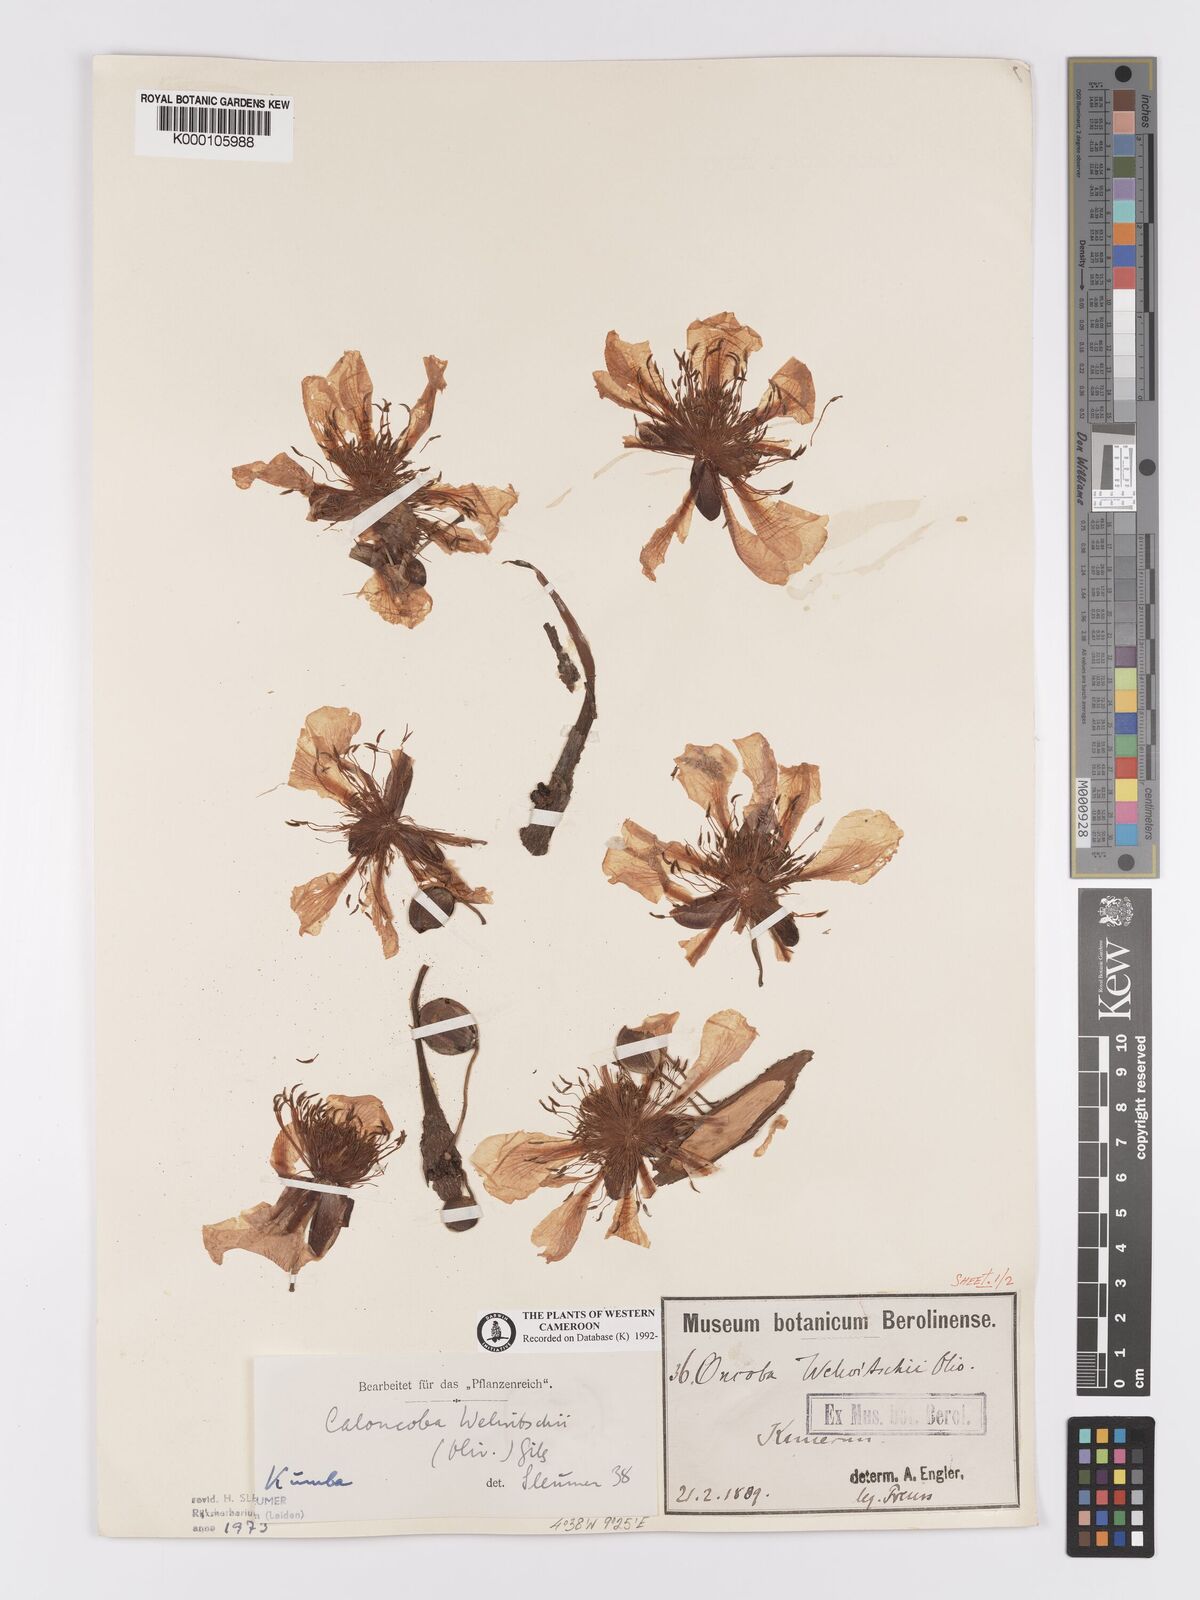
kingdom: Plantae
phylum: Tracheophyta
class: Magnoliopsida
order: Malpighiales
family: Achariaceae
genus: Caloncoba
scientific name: Caloncoba welwitschii
